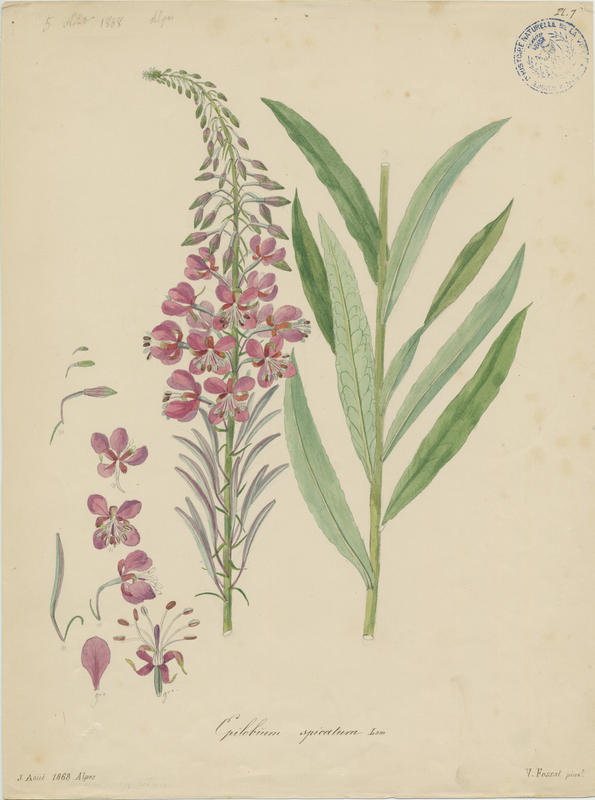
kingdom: Plantae
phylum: Tracheophyta
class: Magnoliopsida
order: Myrtales
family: Onagraceae
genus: Chamaenerion
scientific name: Chamaenerion angustifolium
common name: Fireweed
